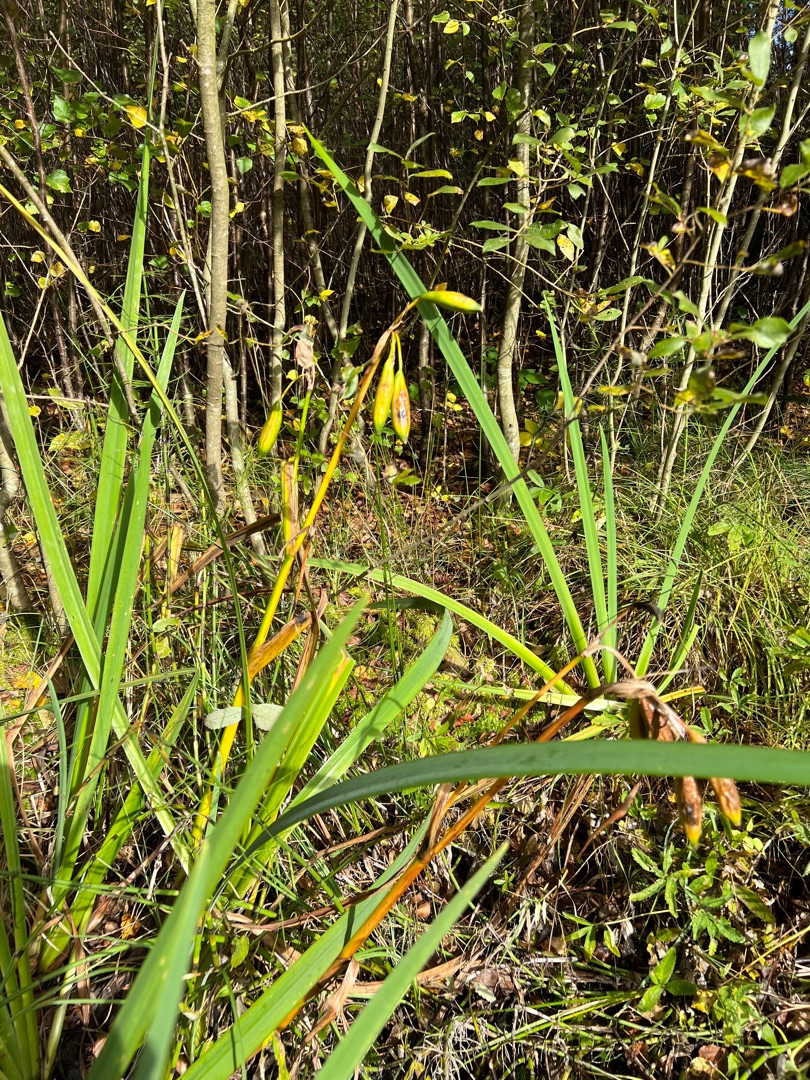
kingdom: Plantae
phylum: Tracheophyta
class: Liliopsida
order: Asparagales
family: Iridaceae
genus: Iris
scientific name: Iris pseudacorus
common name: Gul iris
